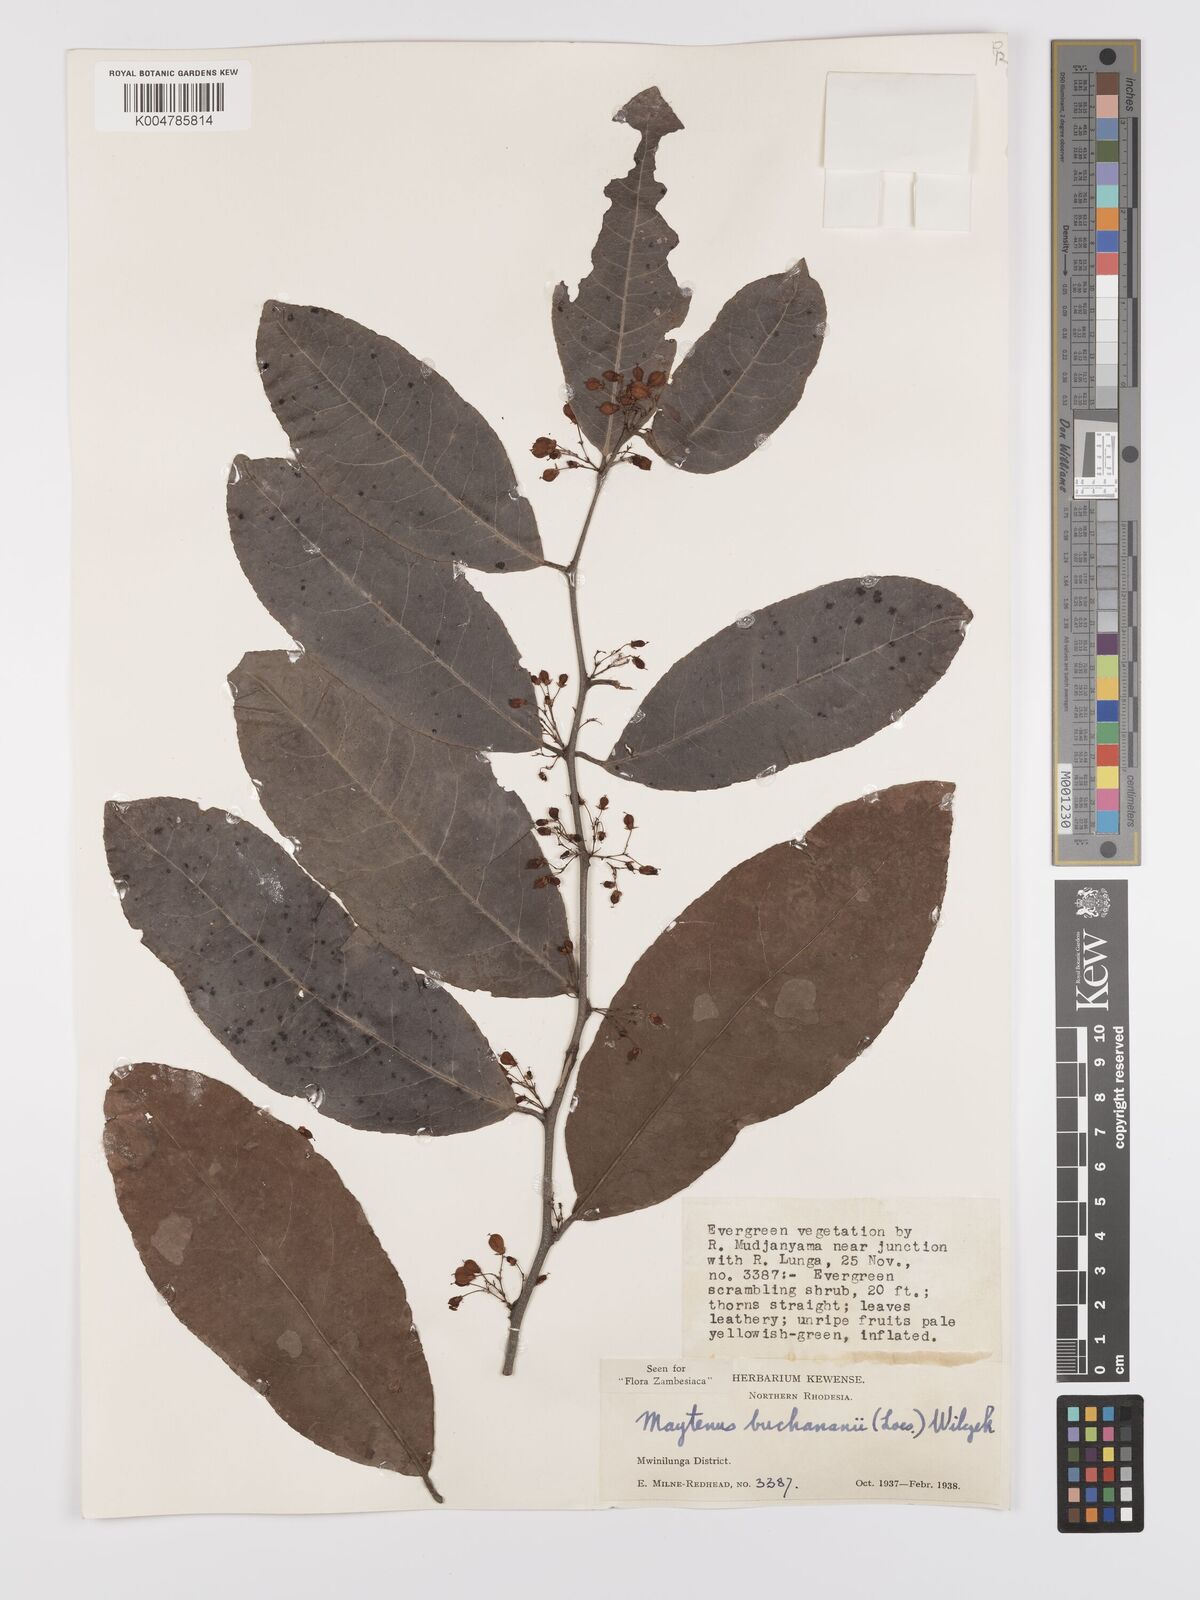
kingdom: Plantae
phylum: Tracheophyta
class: Magnoliopsida
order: Celastrales
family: Celastraceae
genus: Gymnosporia
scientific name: Gymnosporia buchananii
